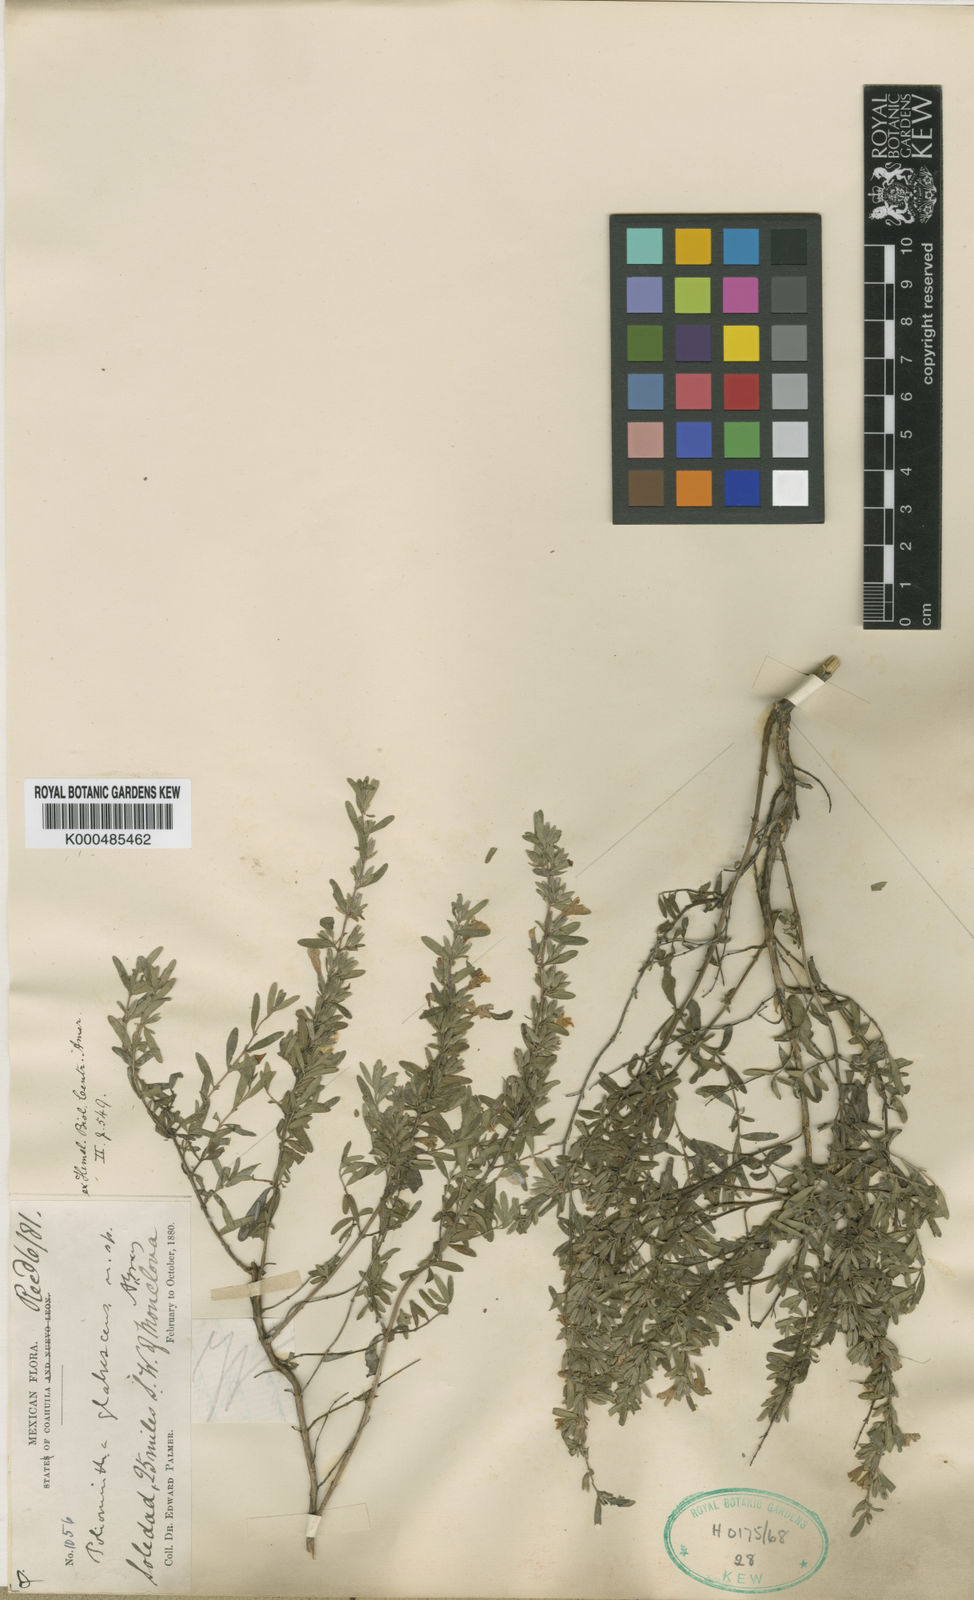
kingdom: Plantae
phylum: Tracheophyta
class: Magnoliopsida
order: Lamiales
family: Lamiaceae
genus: Poliomintha
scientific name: Poliomintha glabrescens
